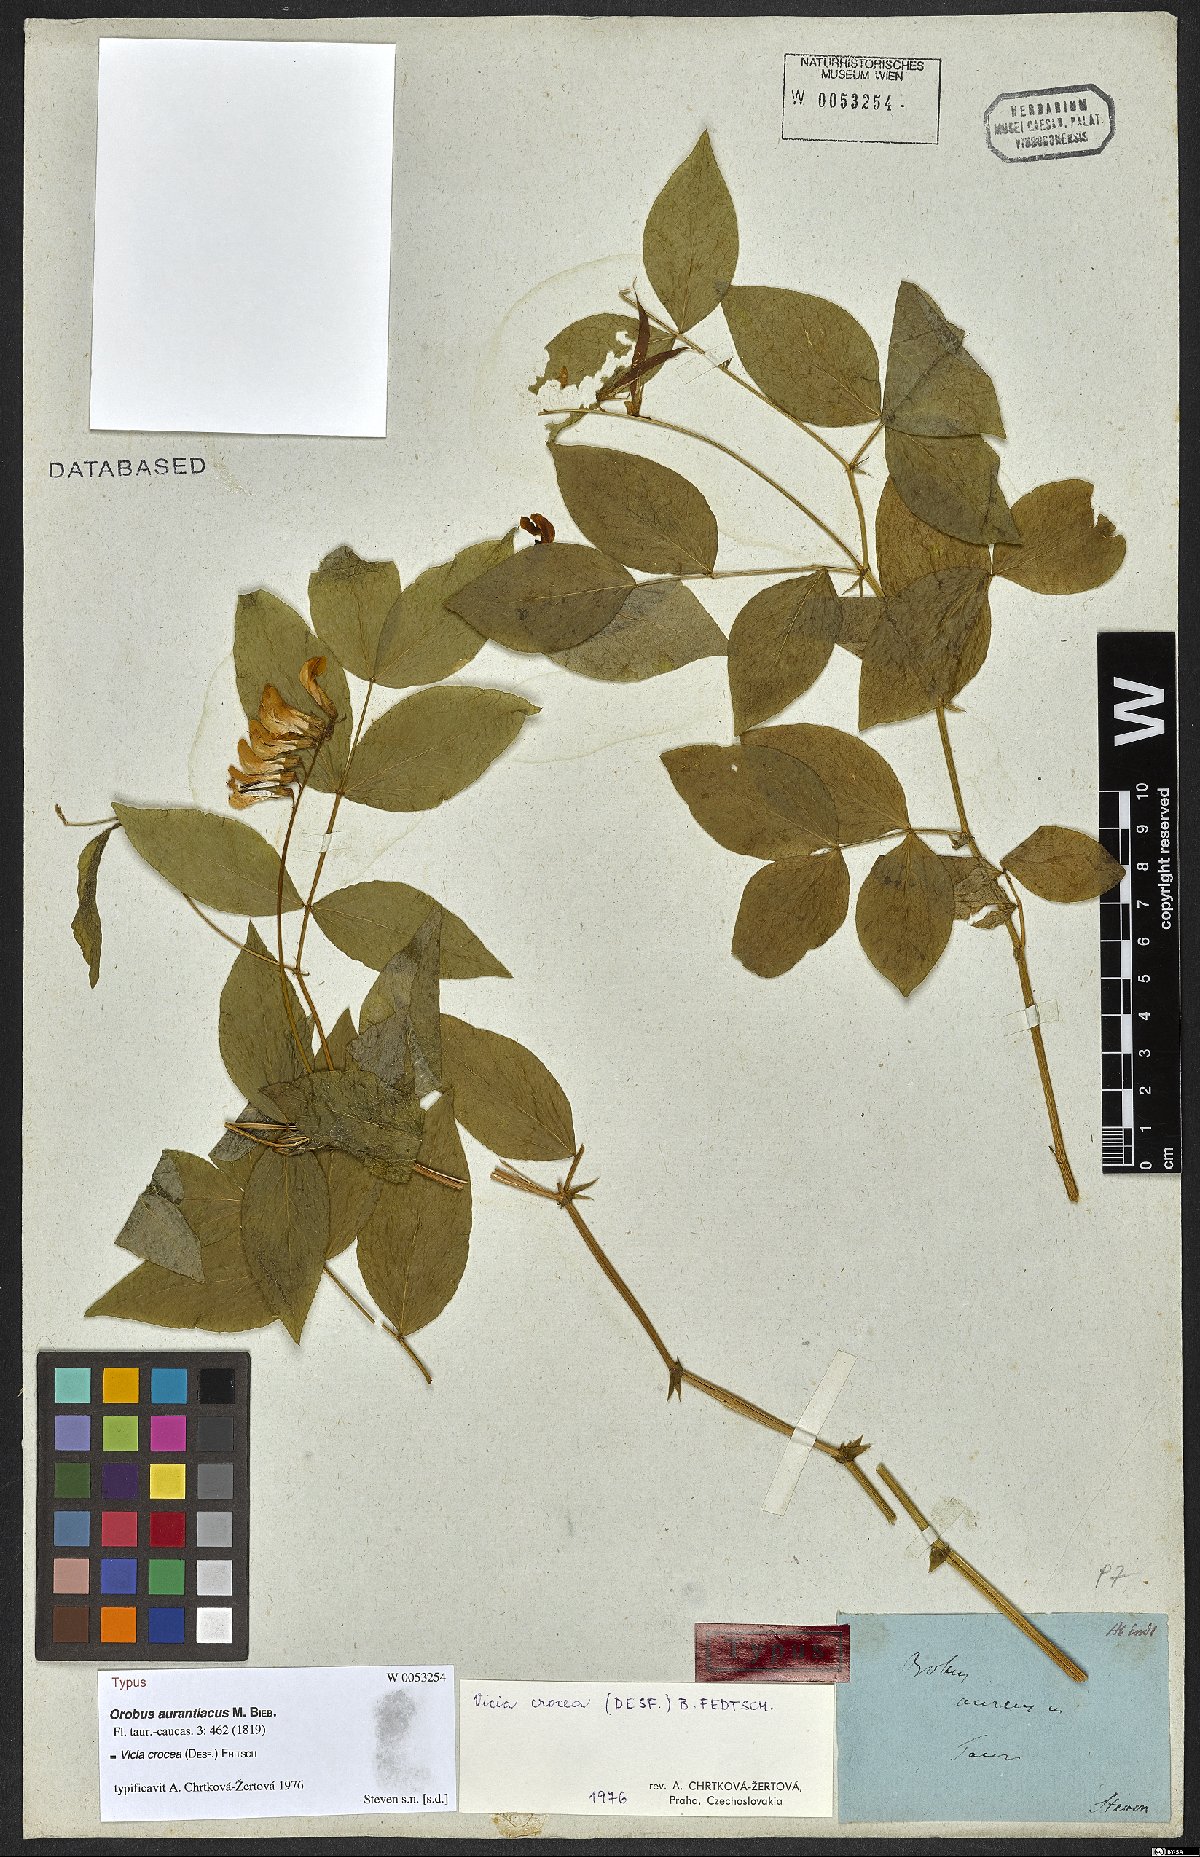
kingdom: Plantae
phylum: Tracheophyta
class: Magnoliopsida
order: Fabales
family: Fabaceae
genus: Vicia
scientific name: Vicia crocea
